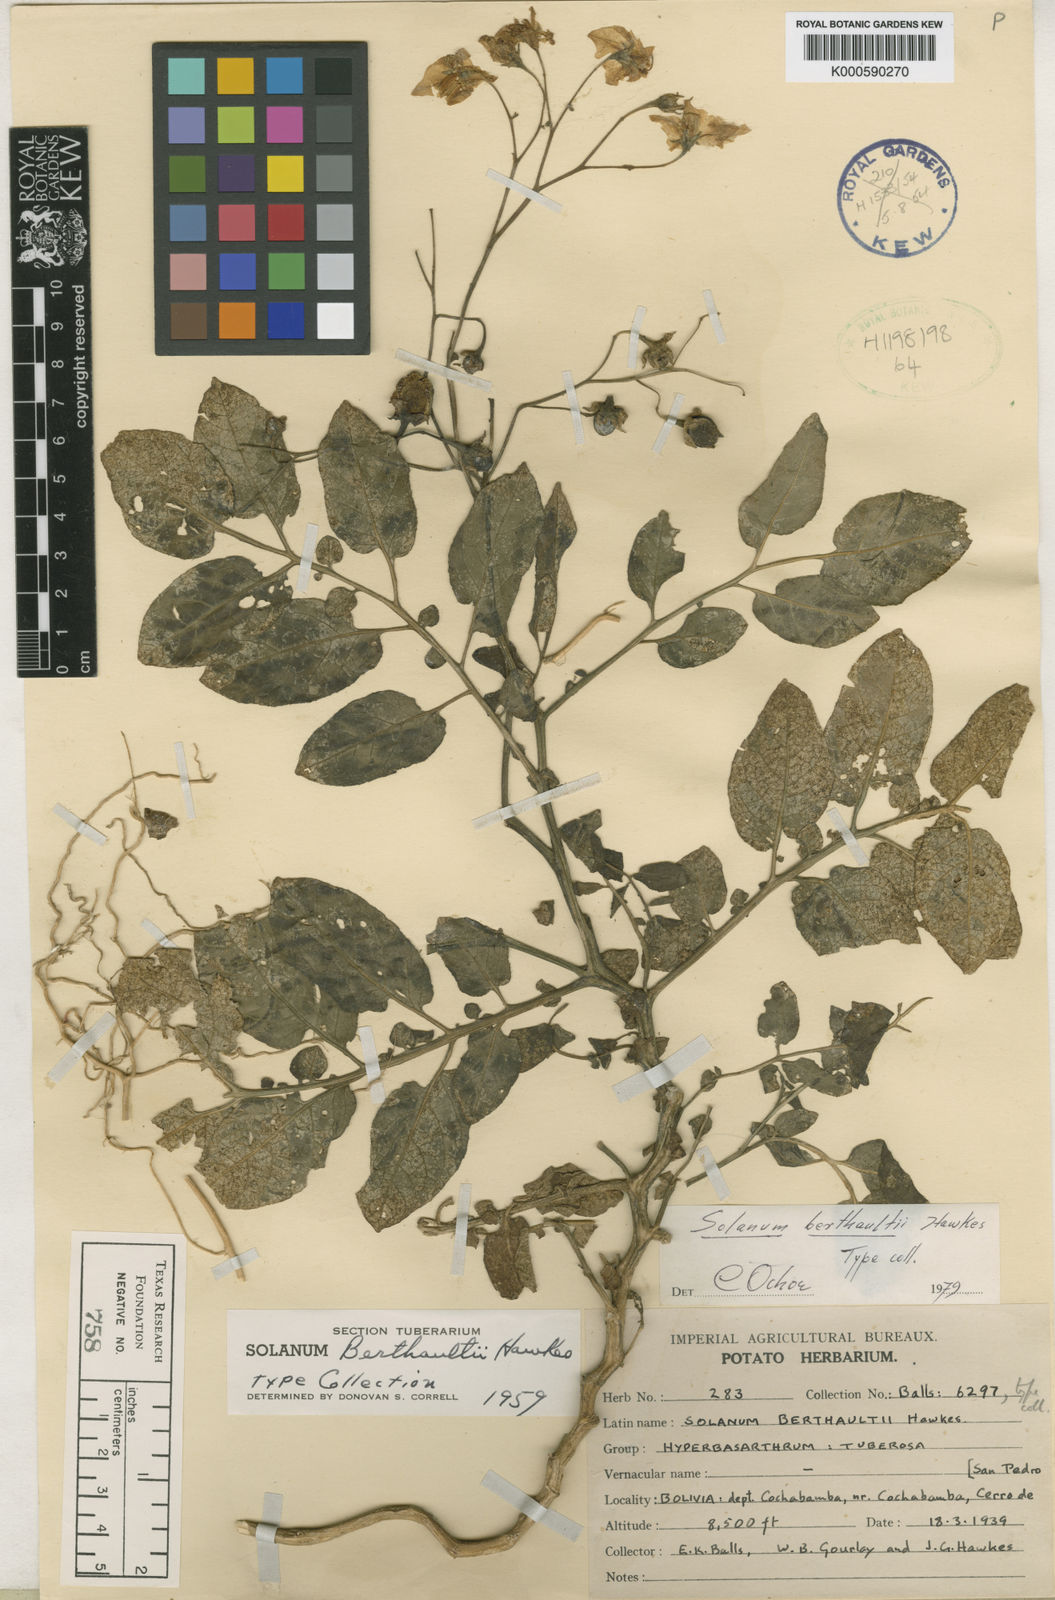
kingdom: Plantae
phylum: Tracheophyta
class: Magnoliopsida
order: Solanales
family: Solanaceae
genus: Solanum
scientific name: Solanum berthaultii
